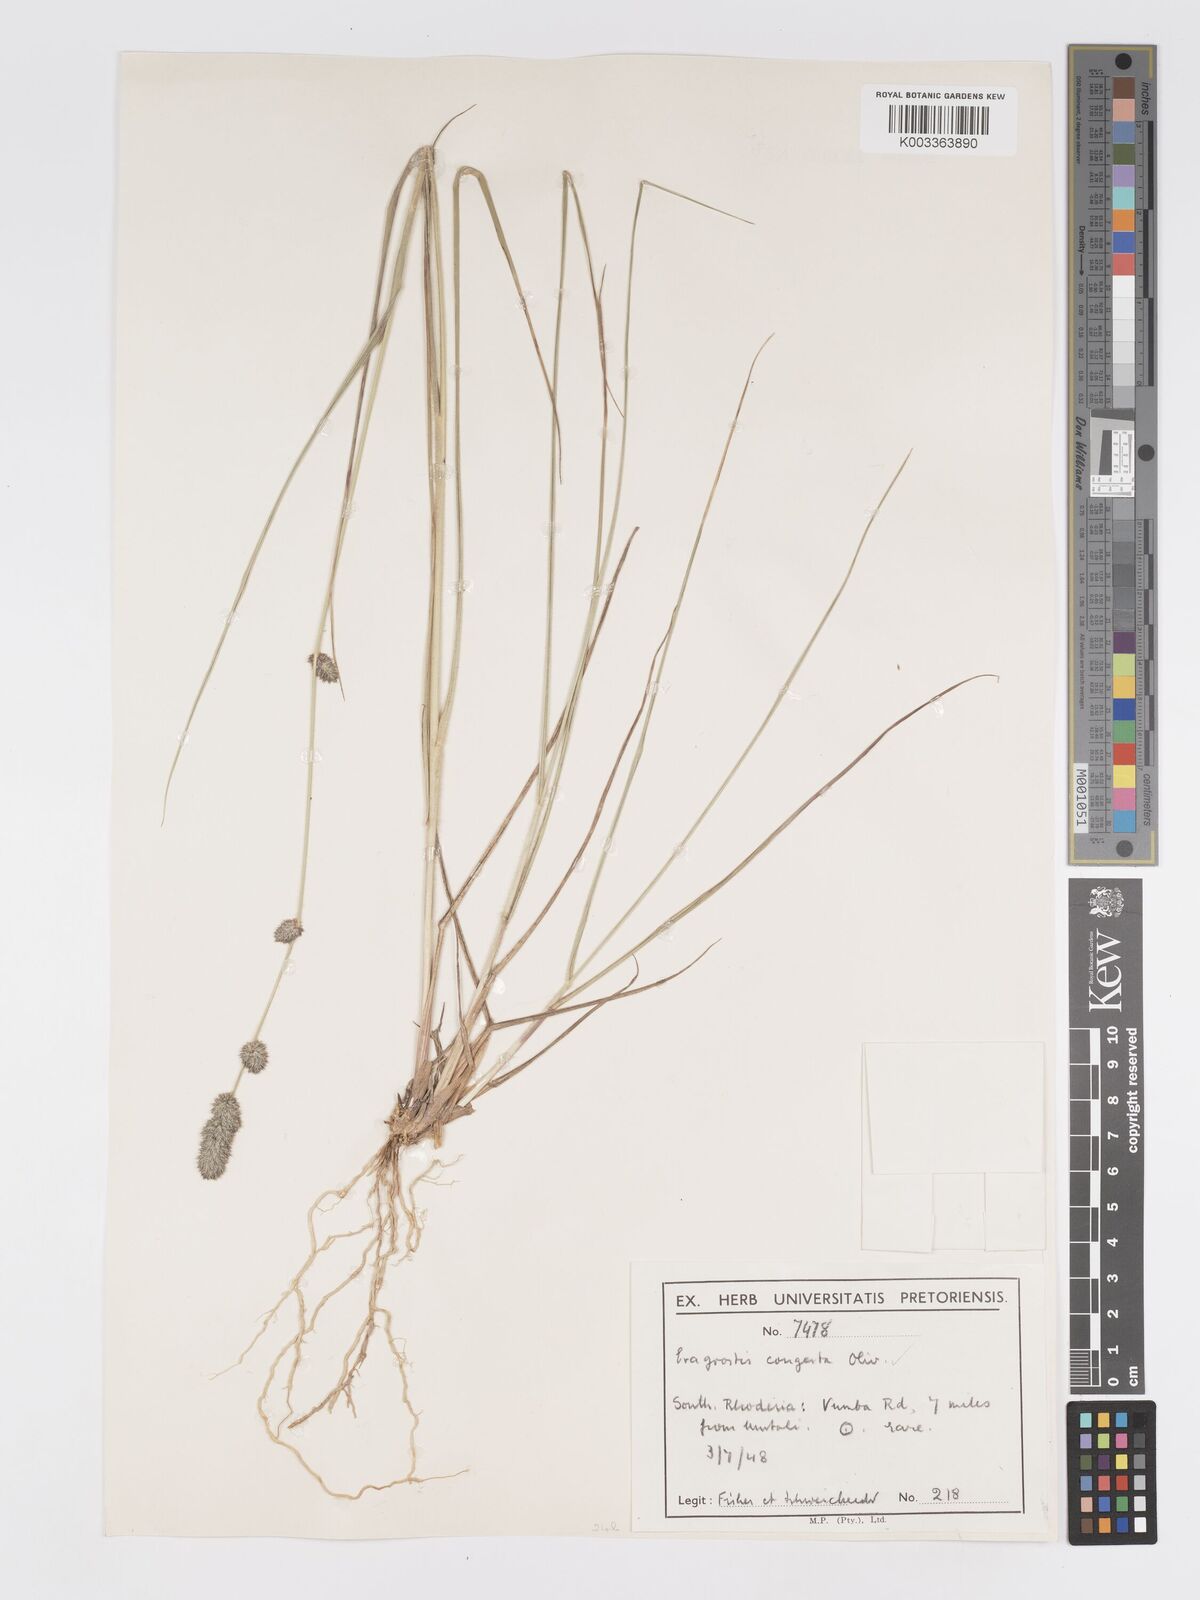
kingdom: Plantae
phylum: Tracheophyta
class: Liliopsida
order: Poales
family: Poaceae
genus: Eragrostis
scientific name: Eragrostis congesta
